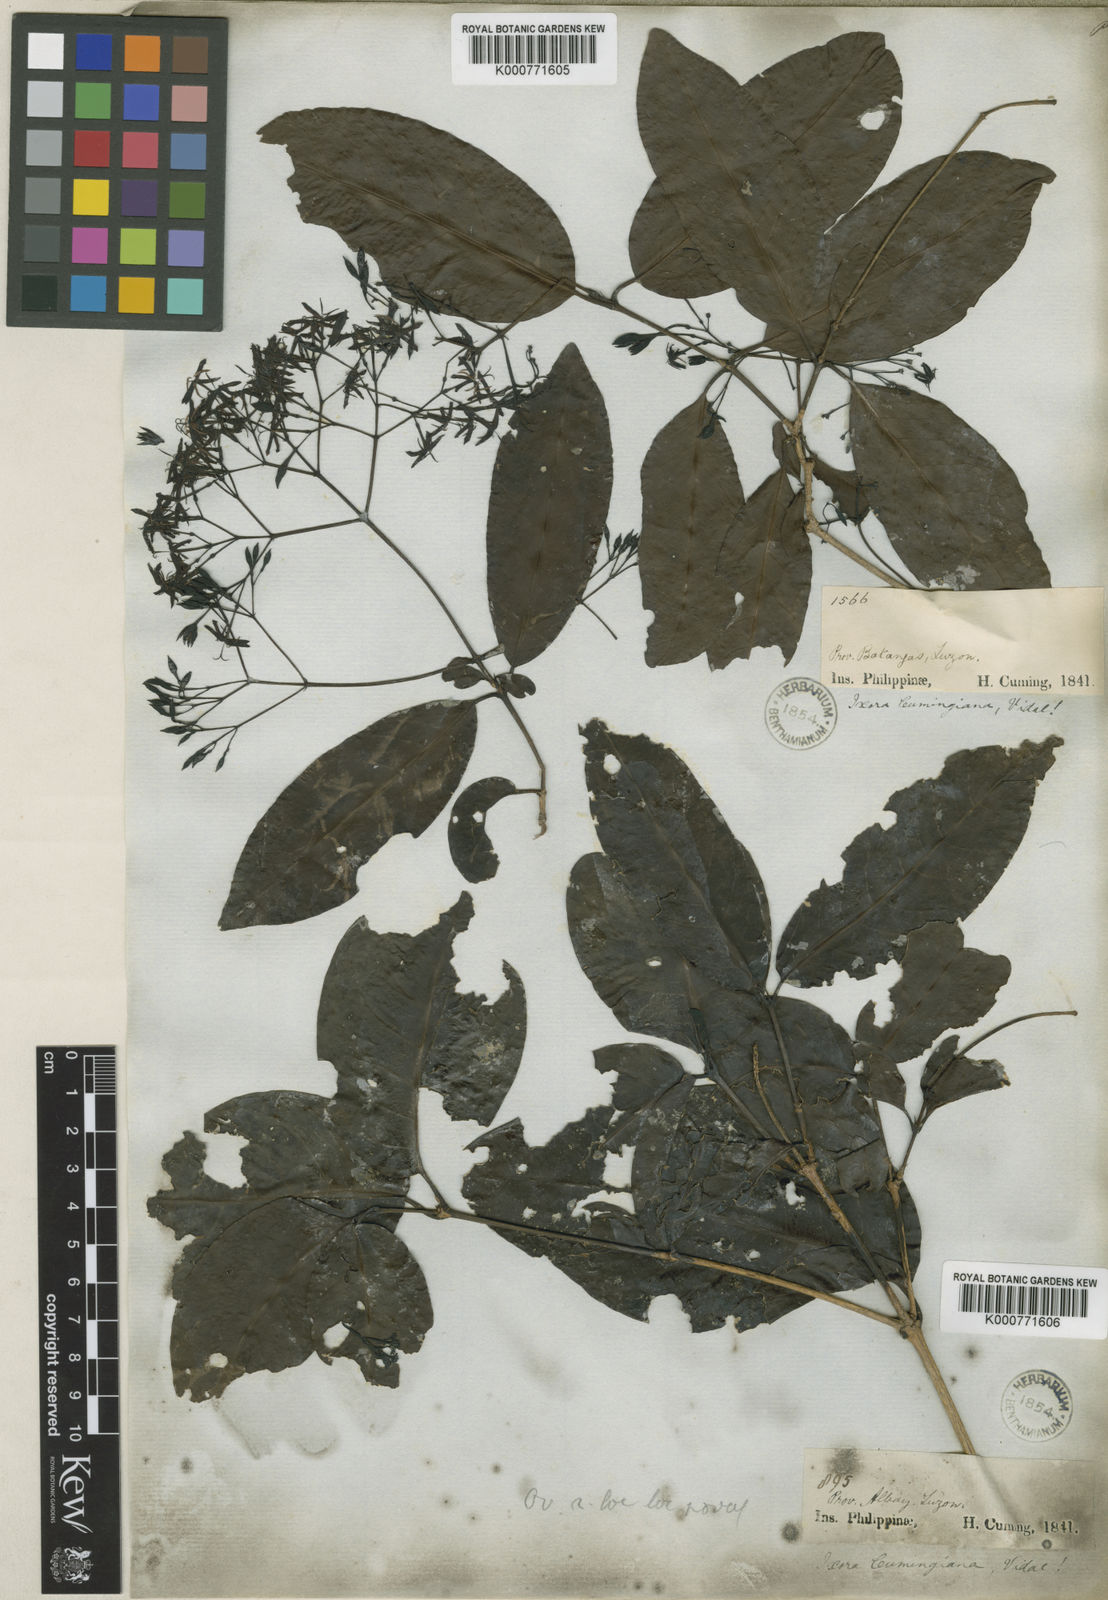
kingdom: Plantae
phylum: Tracheophyta
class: Magnoliopsida
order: Gentianales
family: Rubiaceae
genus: Ixora
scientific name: Ixora cumingiana
